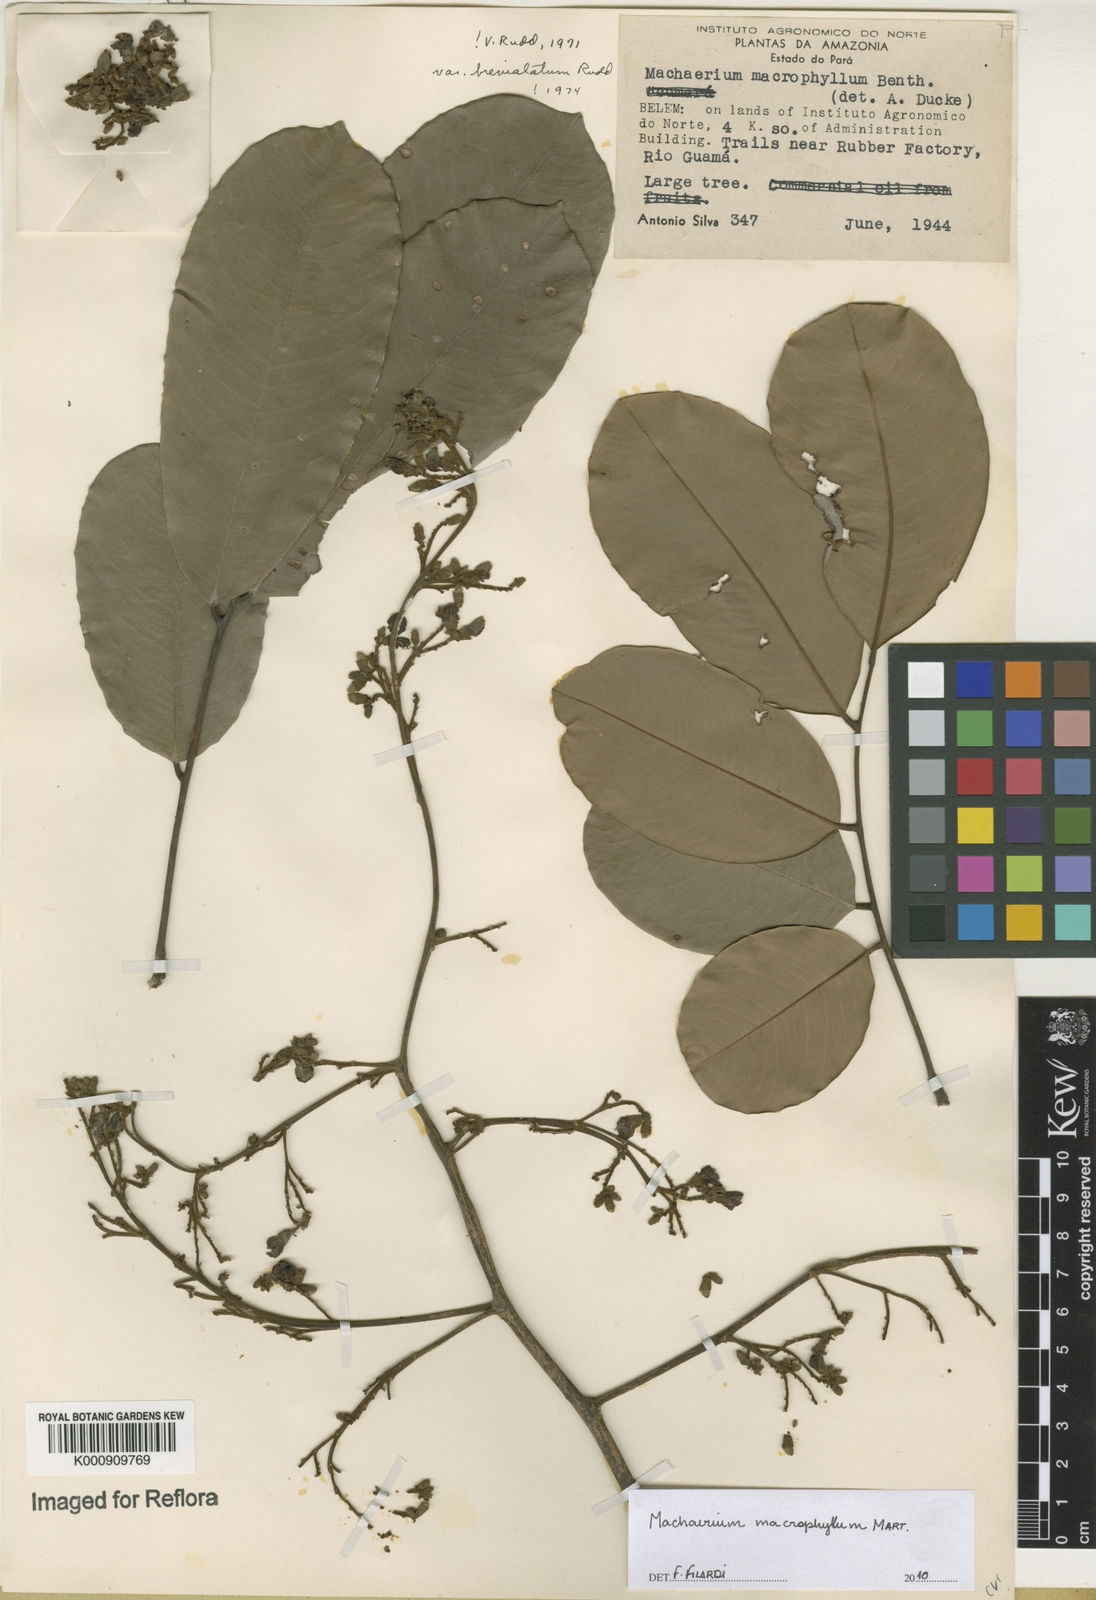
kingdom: Plantae
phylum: Tracheophyta
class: Magnoliopsida
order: Fabales
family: Fabaceae
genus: Machaerium
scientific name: Machaerium macrophyllum
